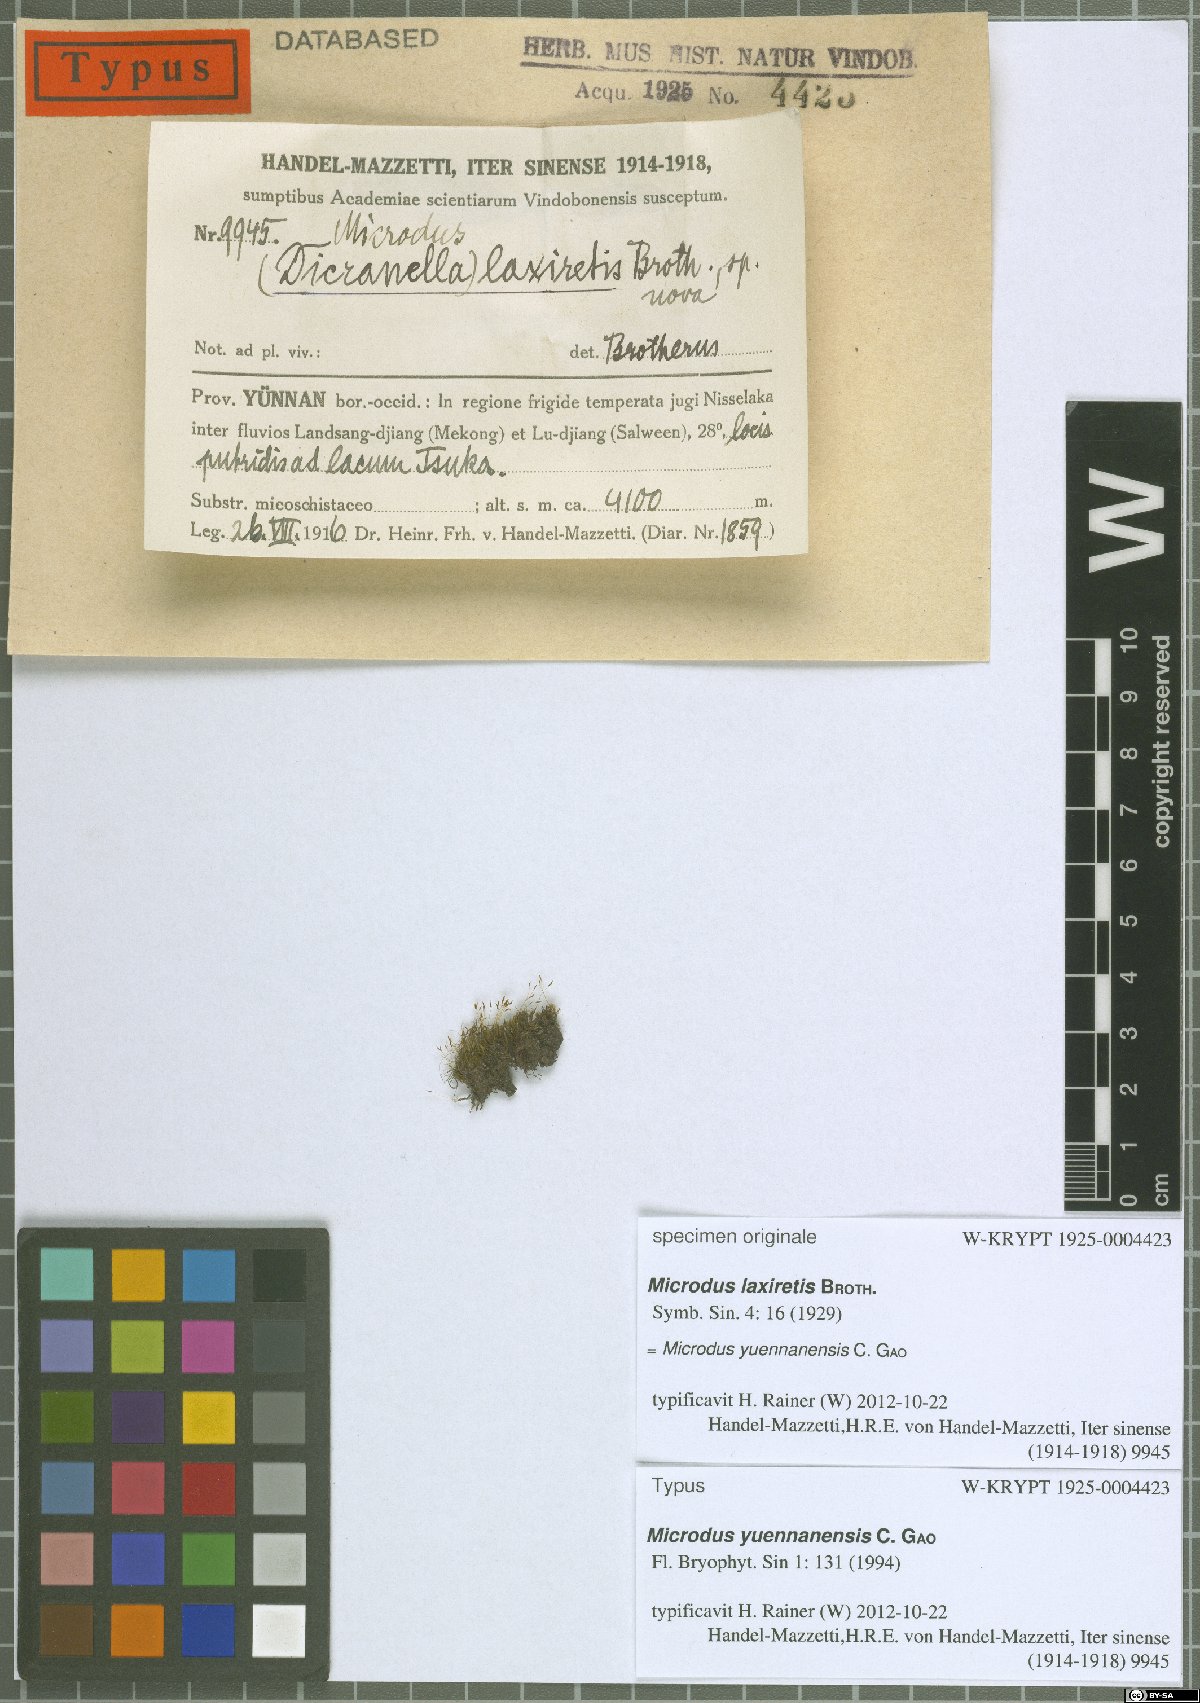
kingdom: Plantae
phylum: Bryophyta
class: Bryopsida
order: Dicranales
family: Dicranellaceae
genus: Leptotrichella
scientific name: Leptotrichella yuennanensis
